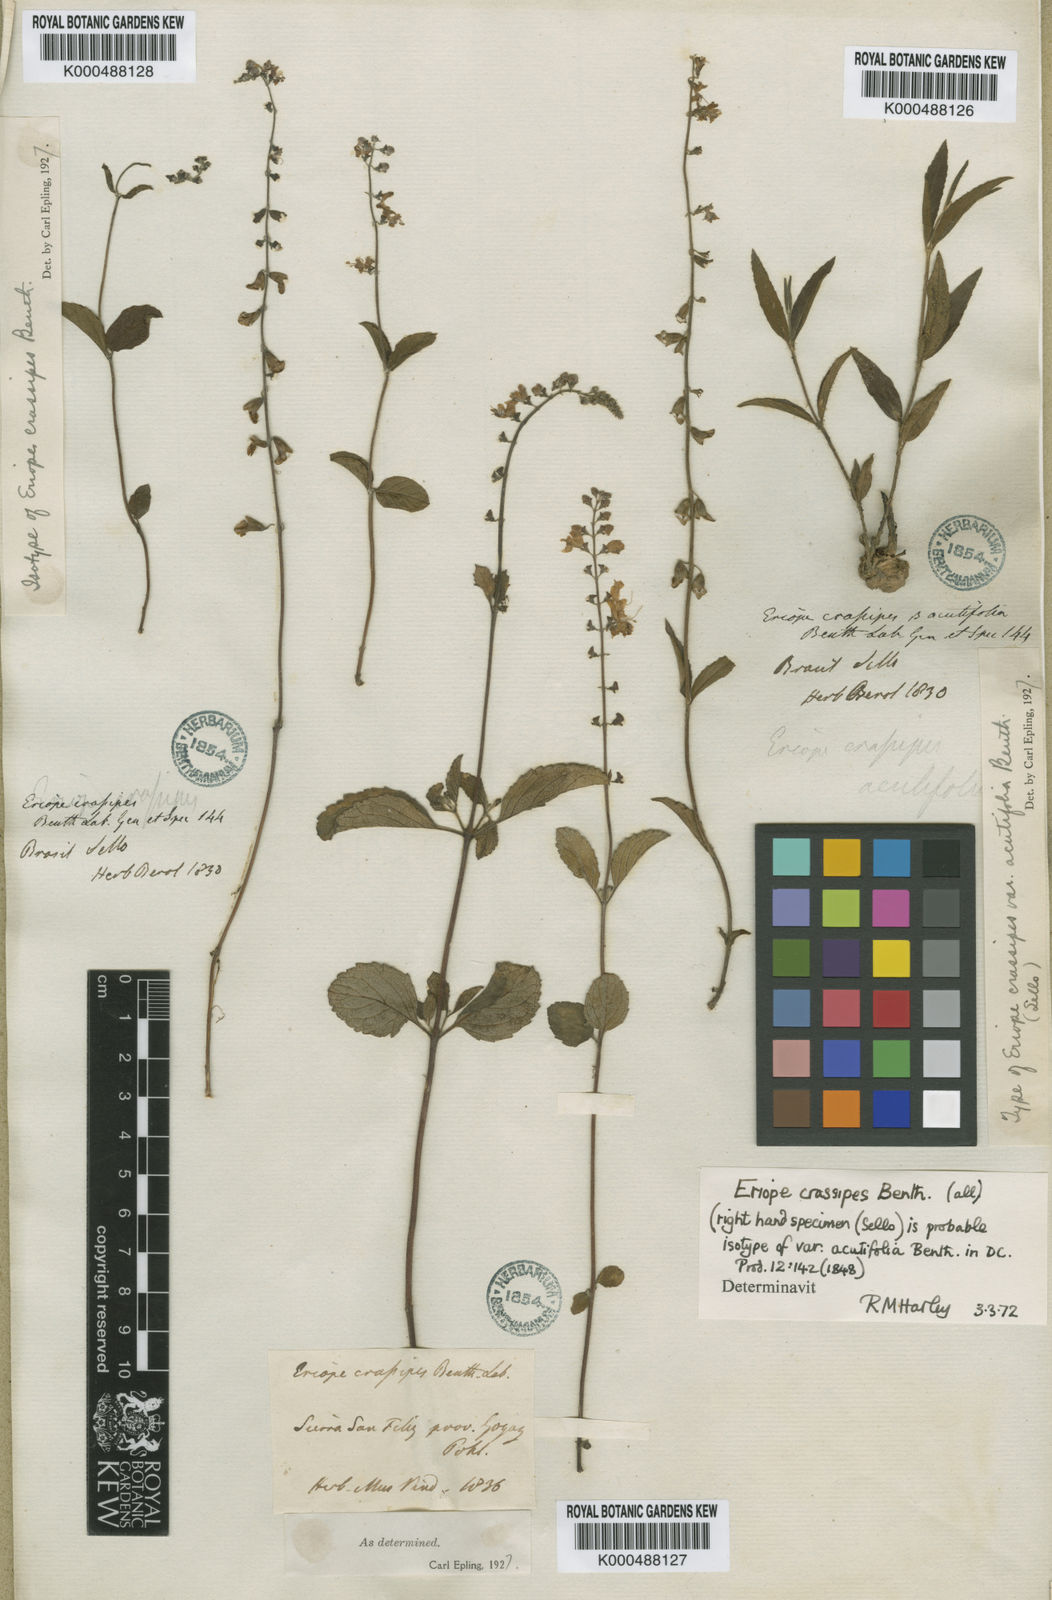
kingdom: Plantae
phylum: Tracheophyta
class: Magnoliopsida
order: Lamiales
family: Lamiaceae
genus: Eriope
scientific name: Eriope crassipes
